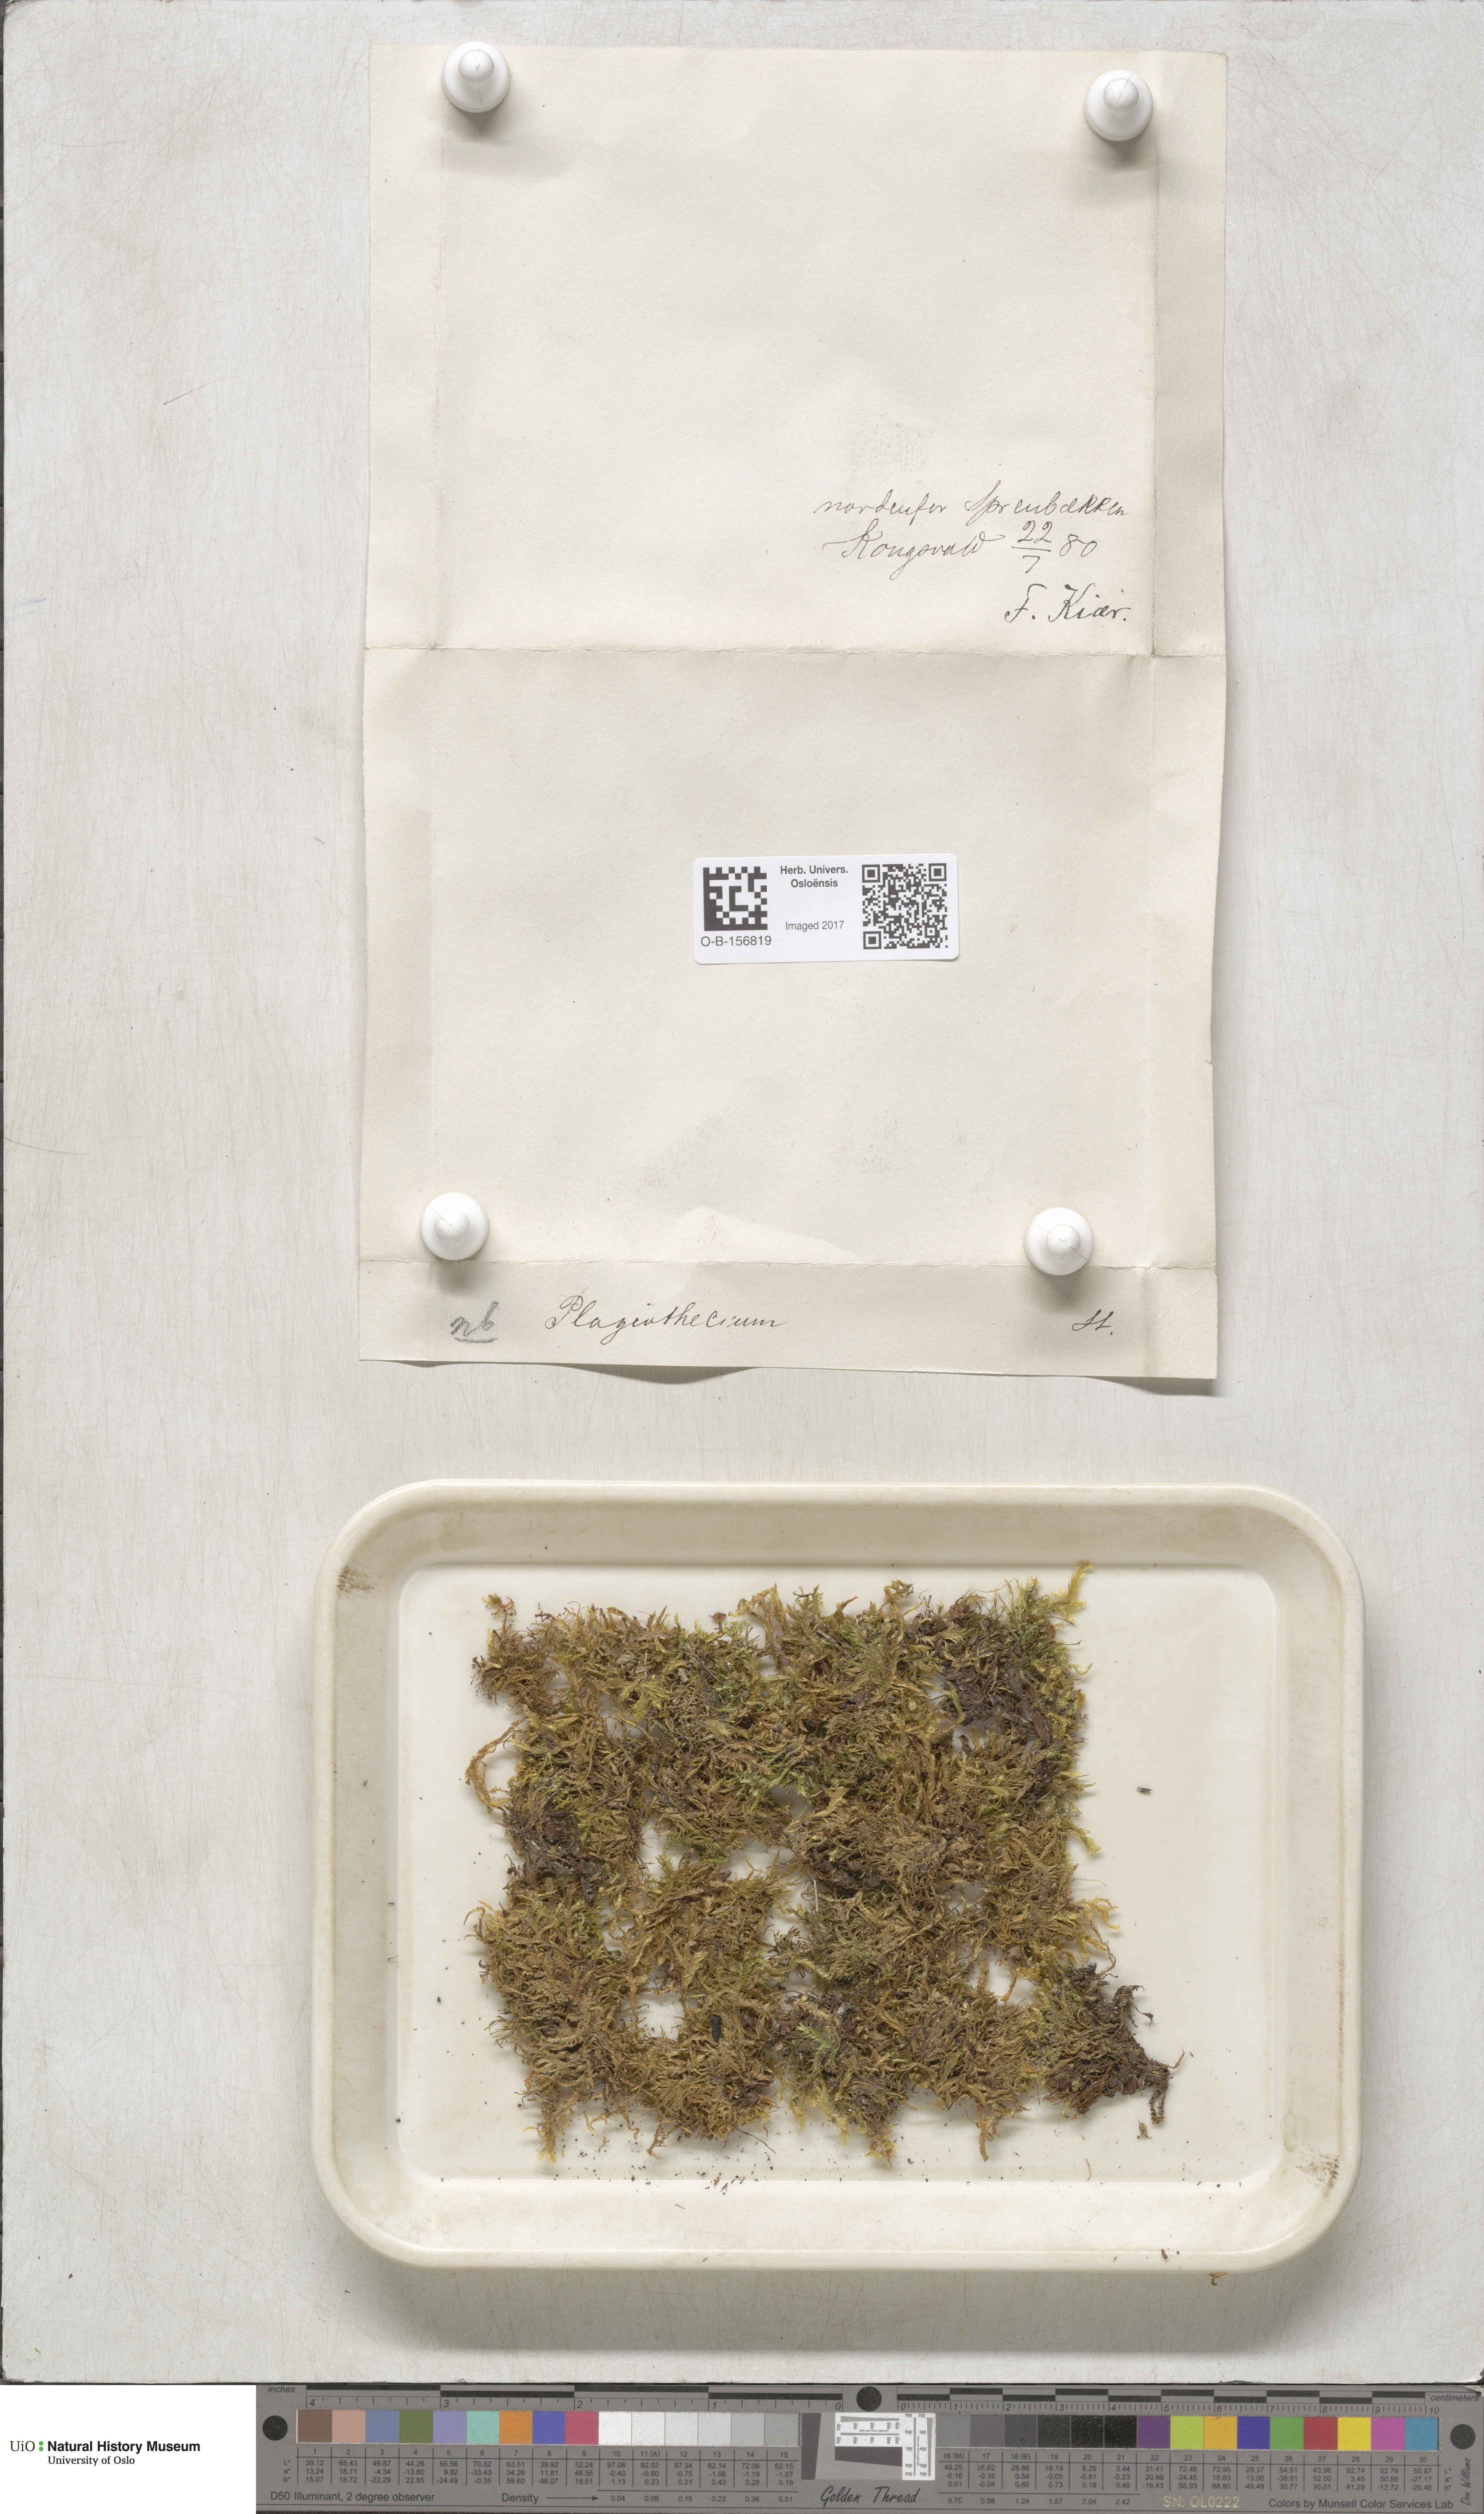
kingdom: Plantae
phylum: Bryophyta
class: Bryopsida
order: Hypnales
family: Plagiotheciaceae
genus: Plagiothecium
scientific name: Plagiothecium
